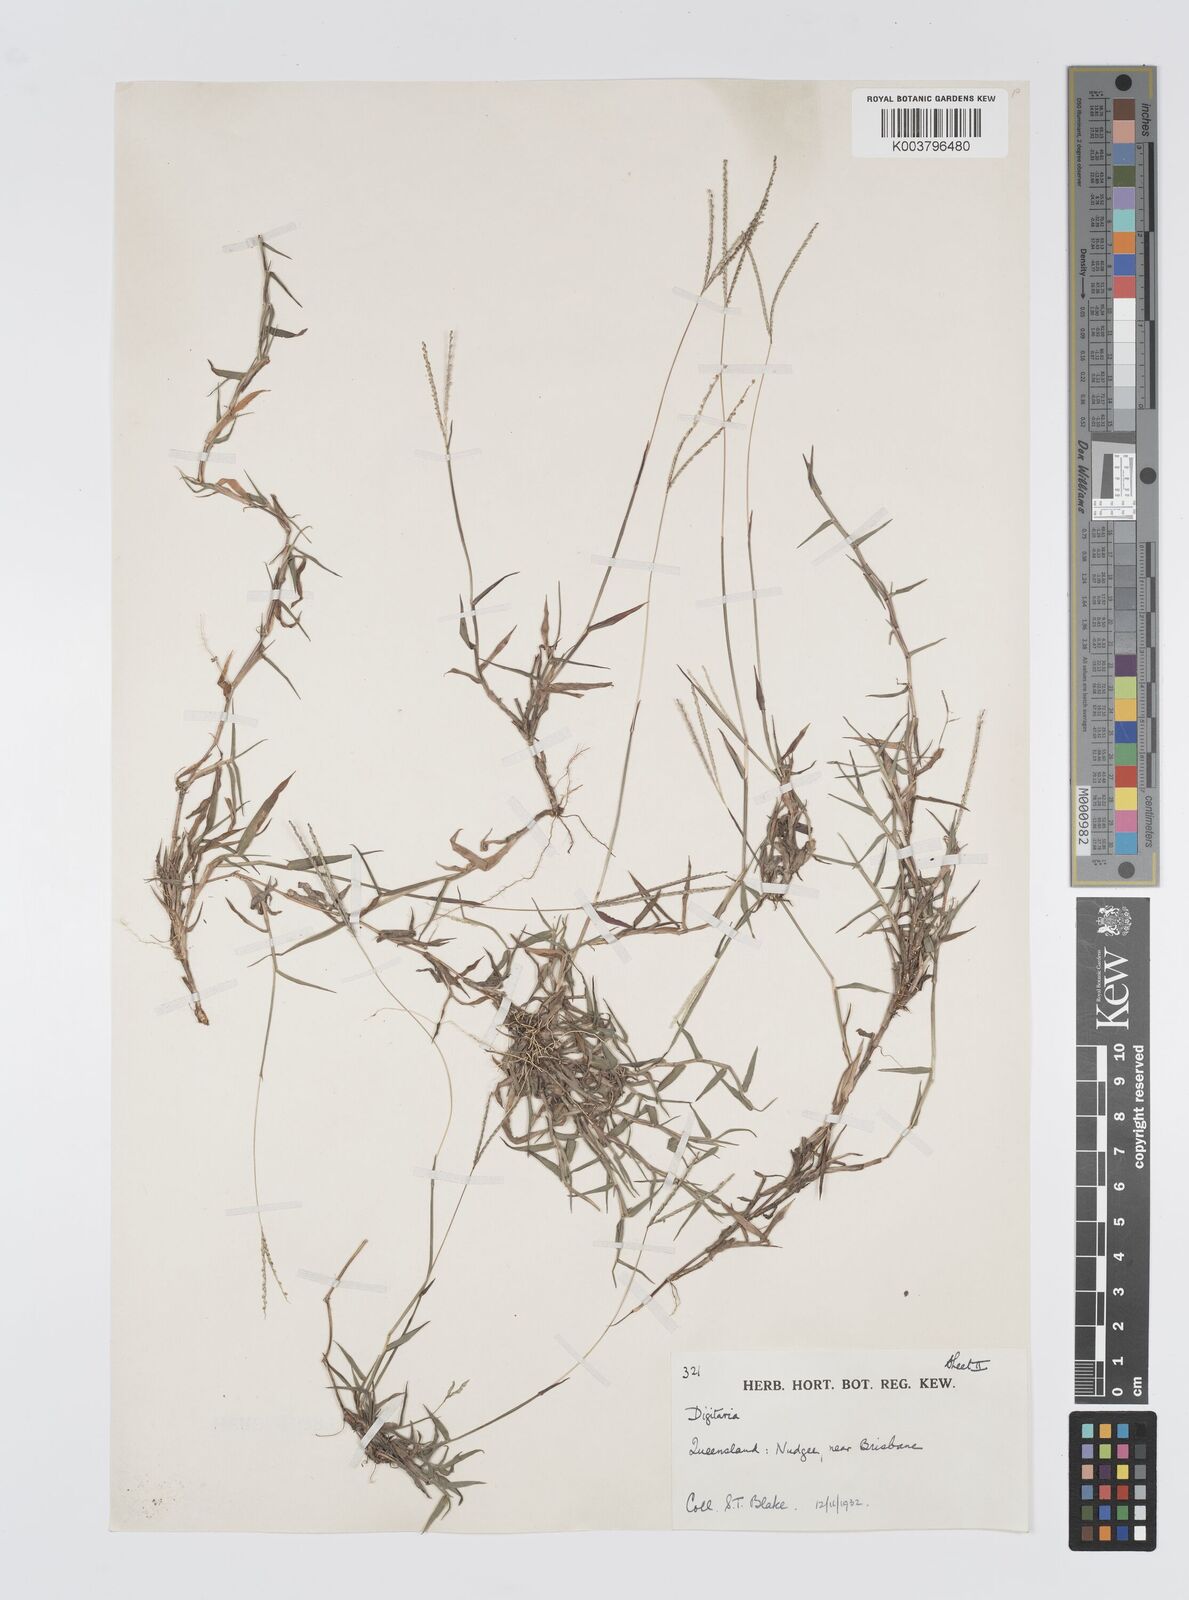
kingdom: Plantae
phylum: Tracheophyta
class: Liliopsida
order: Poales
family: Poaceae
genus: Digitaria
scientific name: Digitaria longiflora
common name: Wire crabgrass
